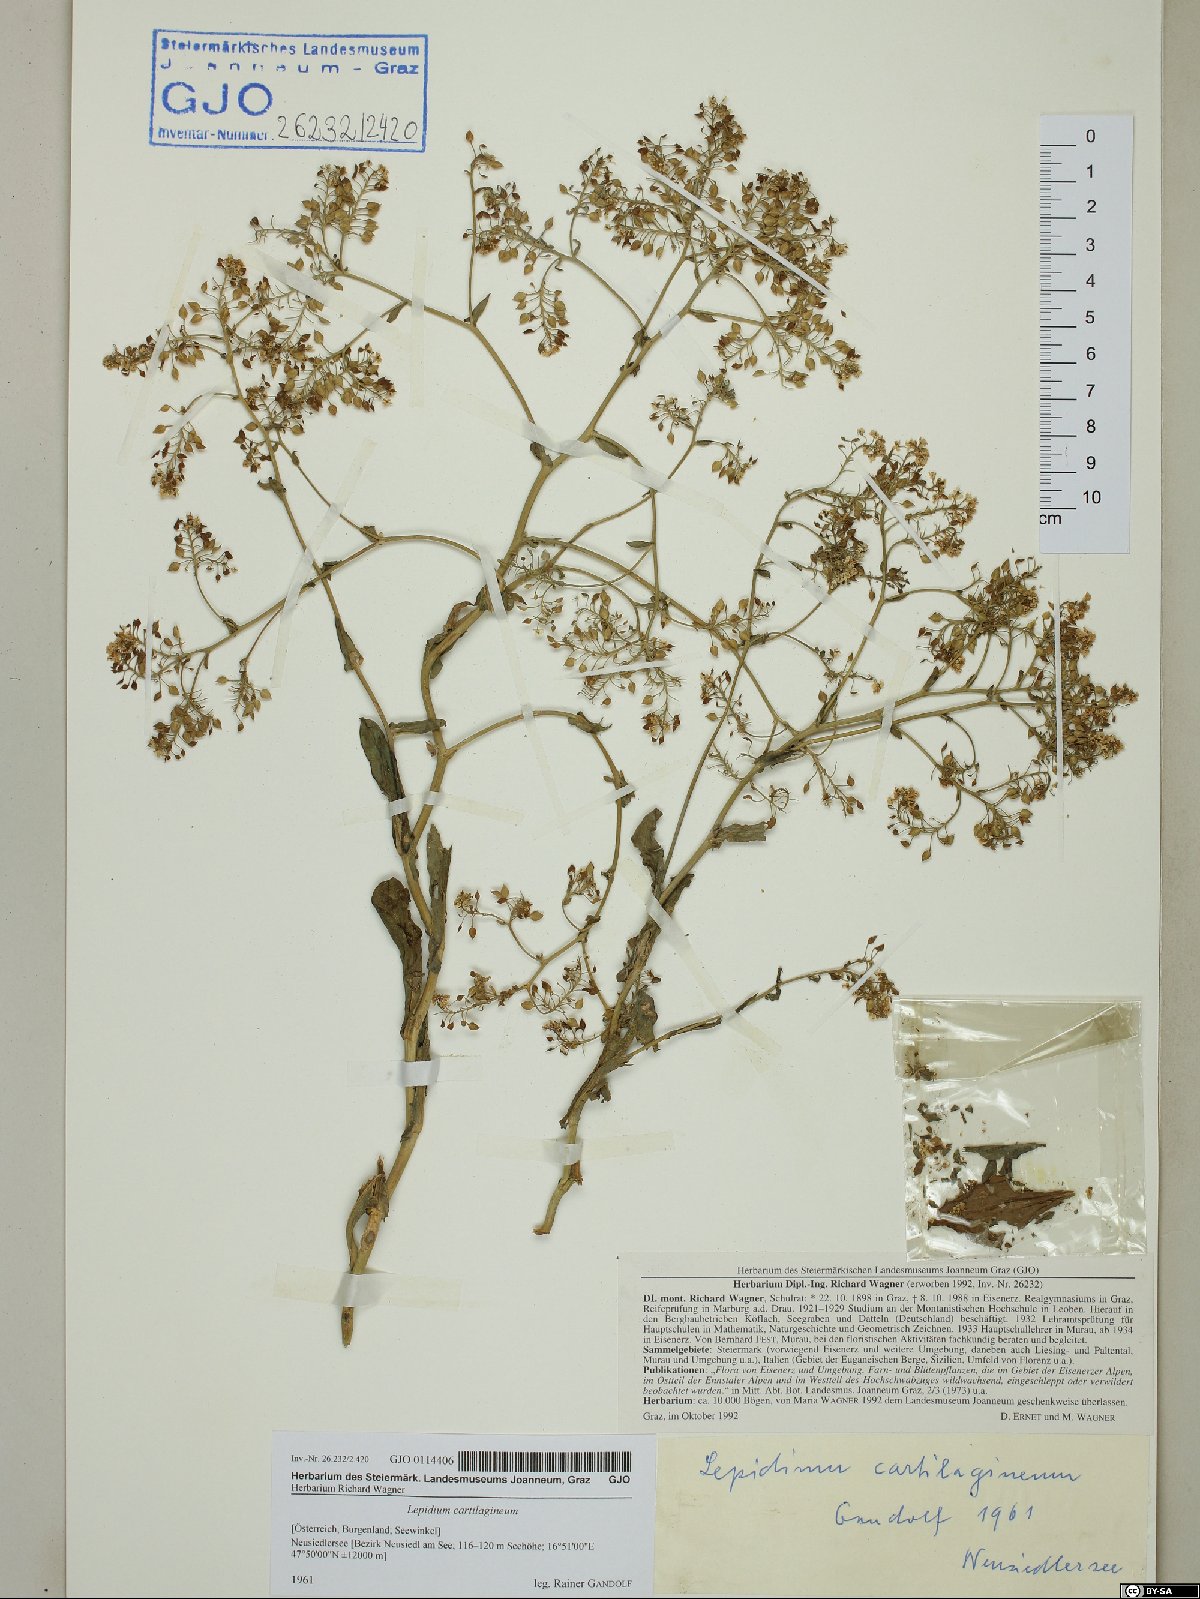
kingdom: Plantae
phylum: Tracheophyta
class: Magnoliopsida
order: Brassicales
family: Brassicaceae
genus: Lepidium
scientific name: Lepidium cartilagineum
